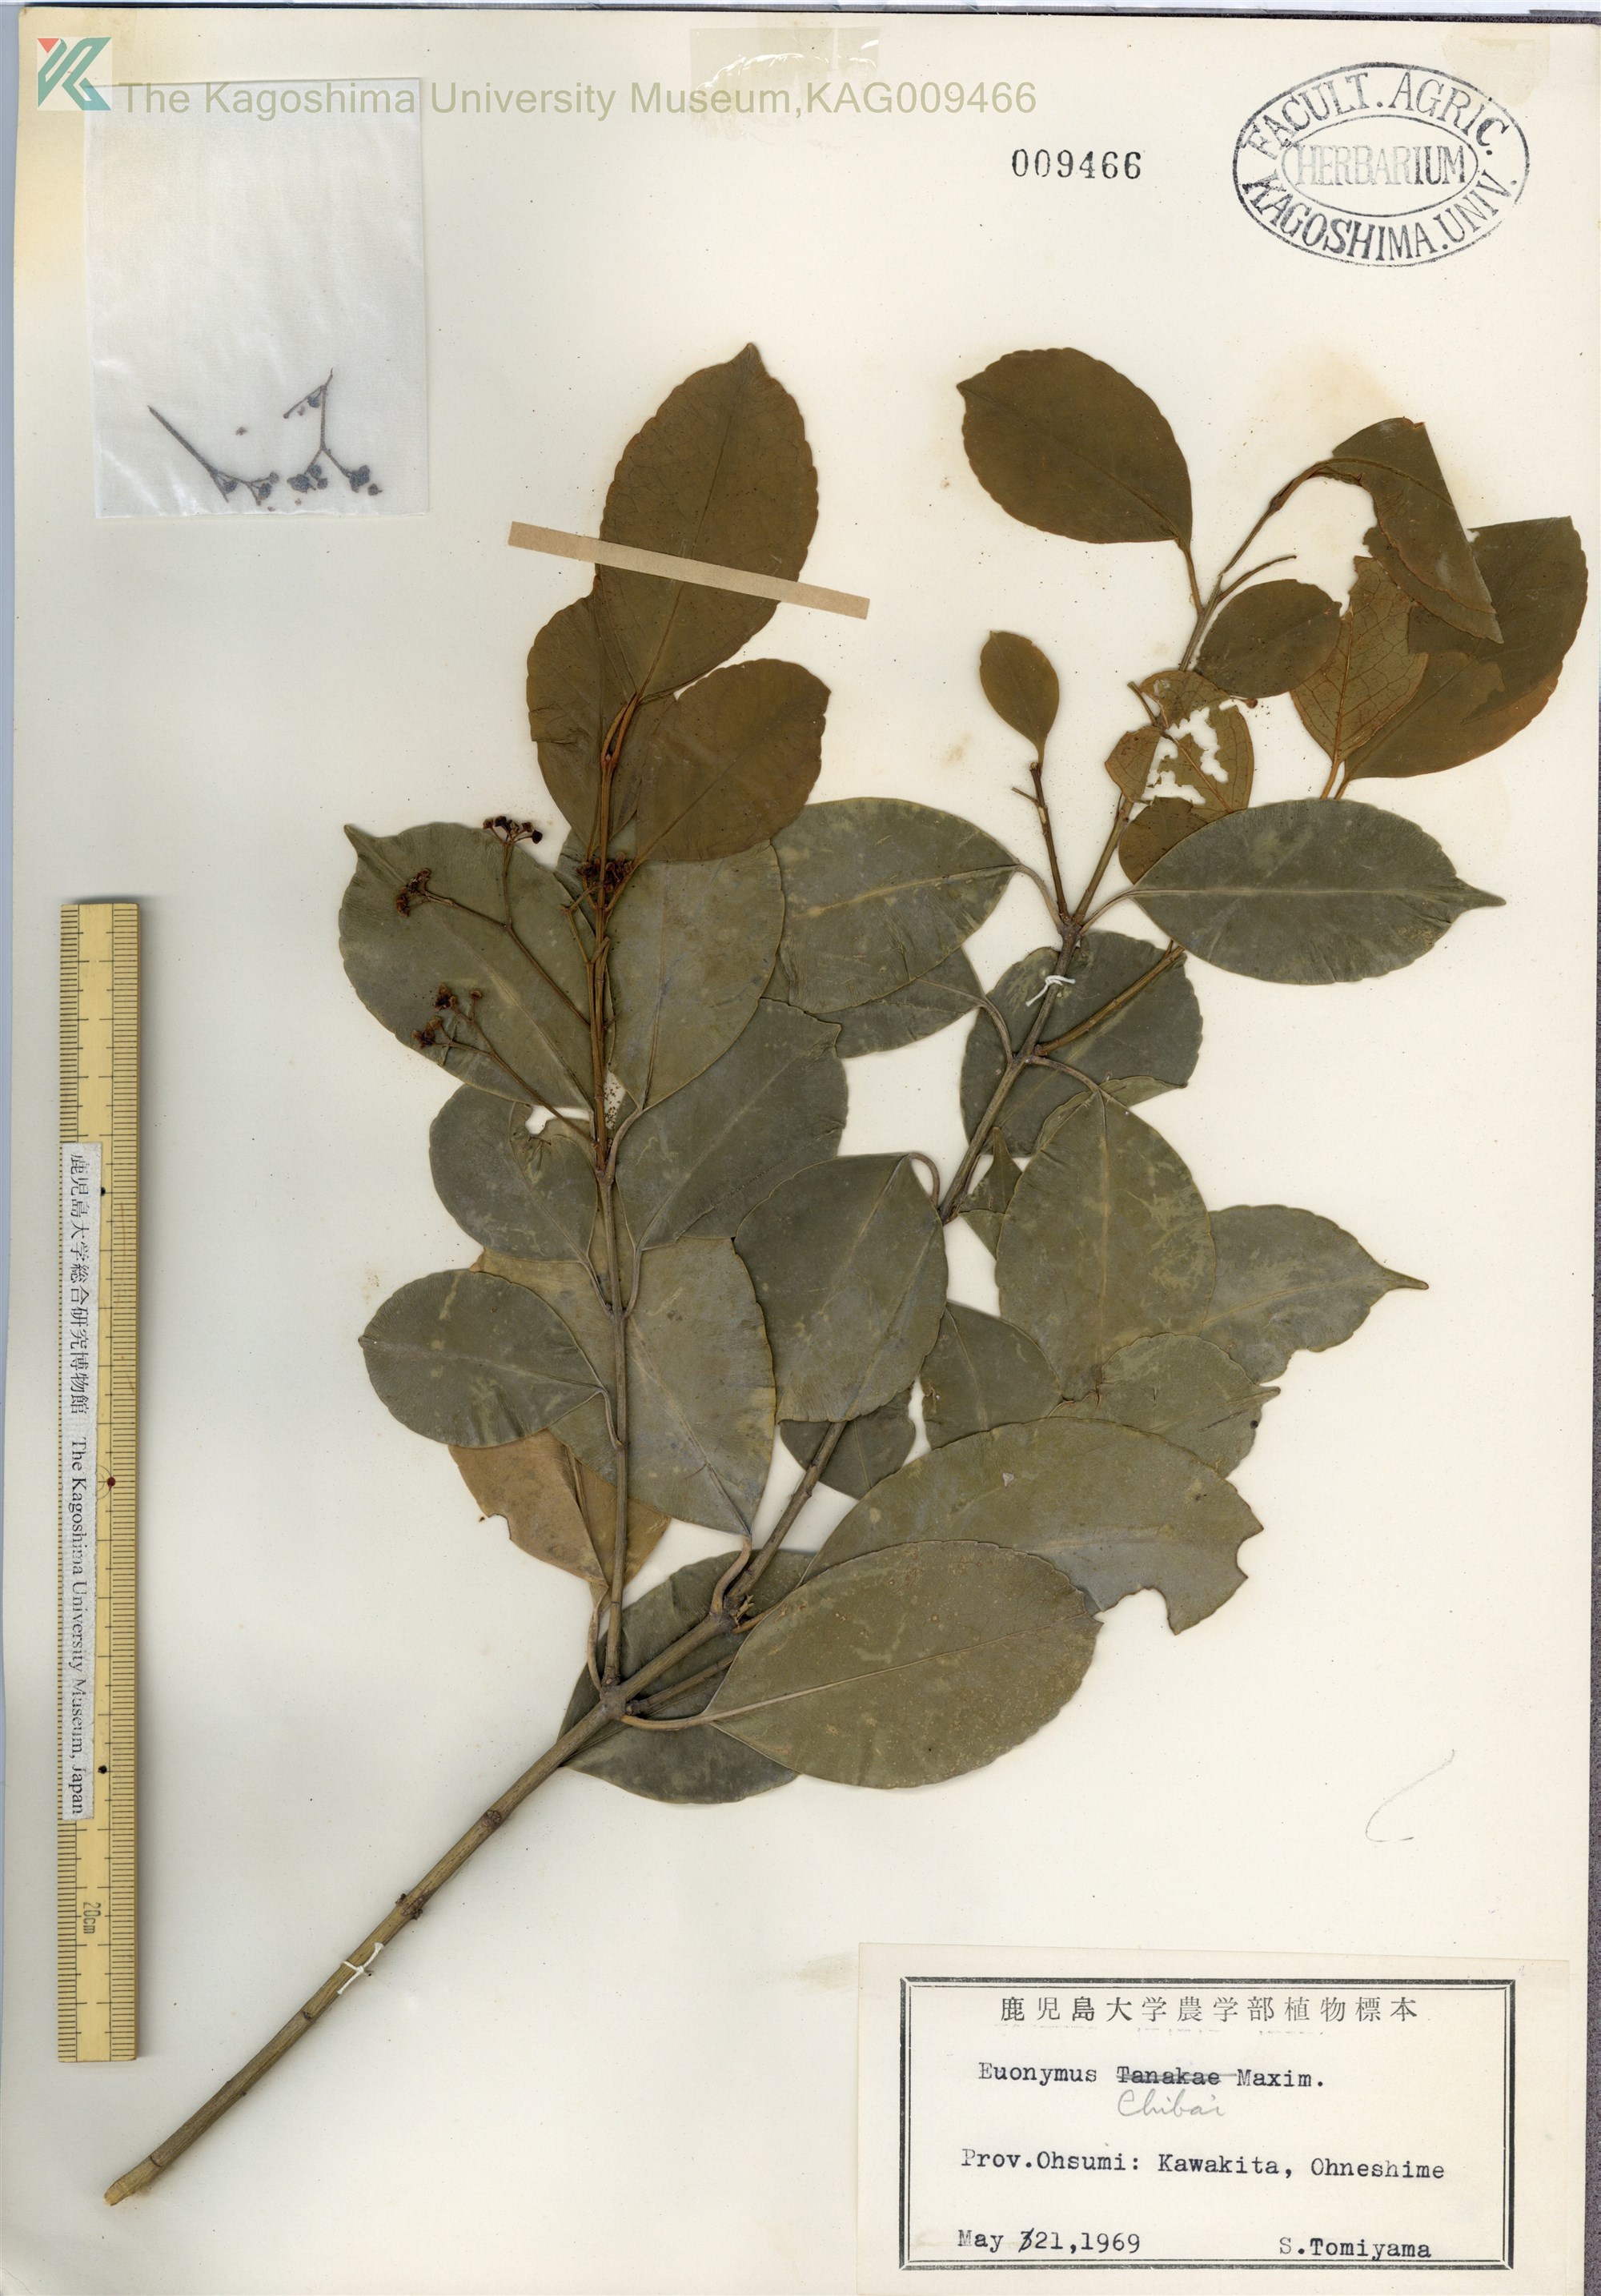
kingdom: Plantae
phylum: Tracheophyta
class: Magnoliopsida
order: Celastrales
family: Celastraceae
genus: Euonymus
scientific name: Euonymus chibae
